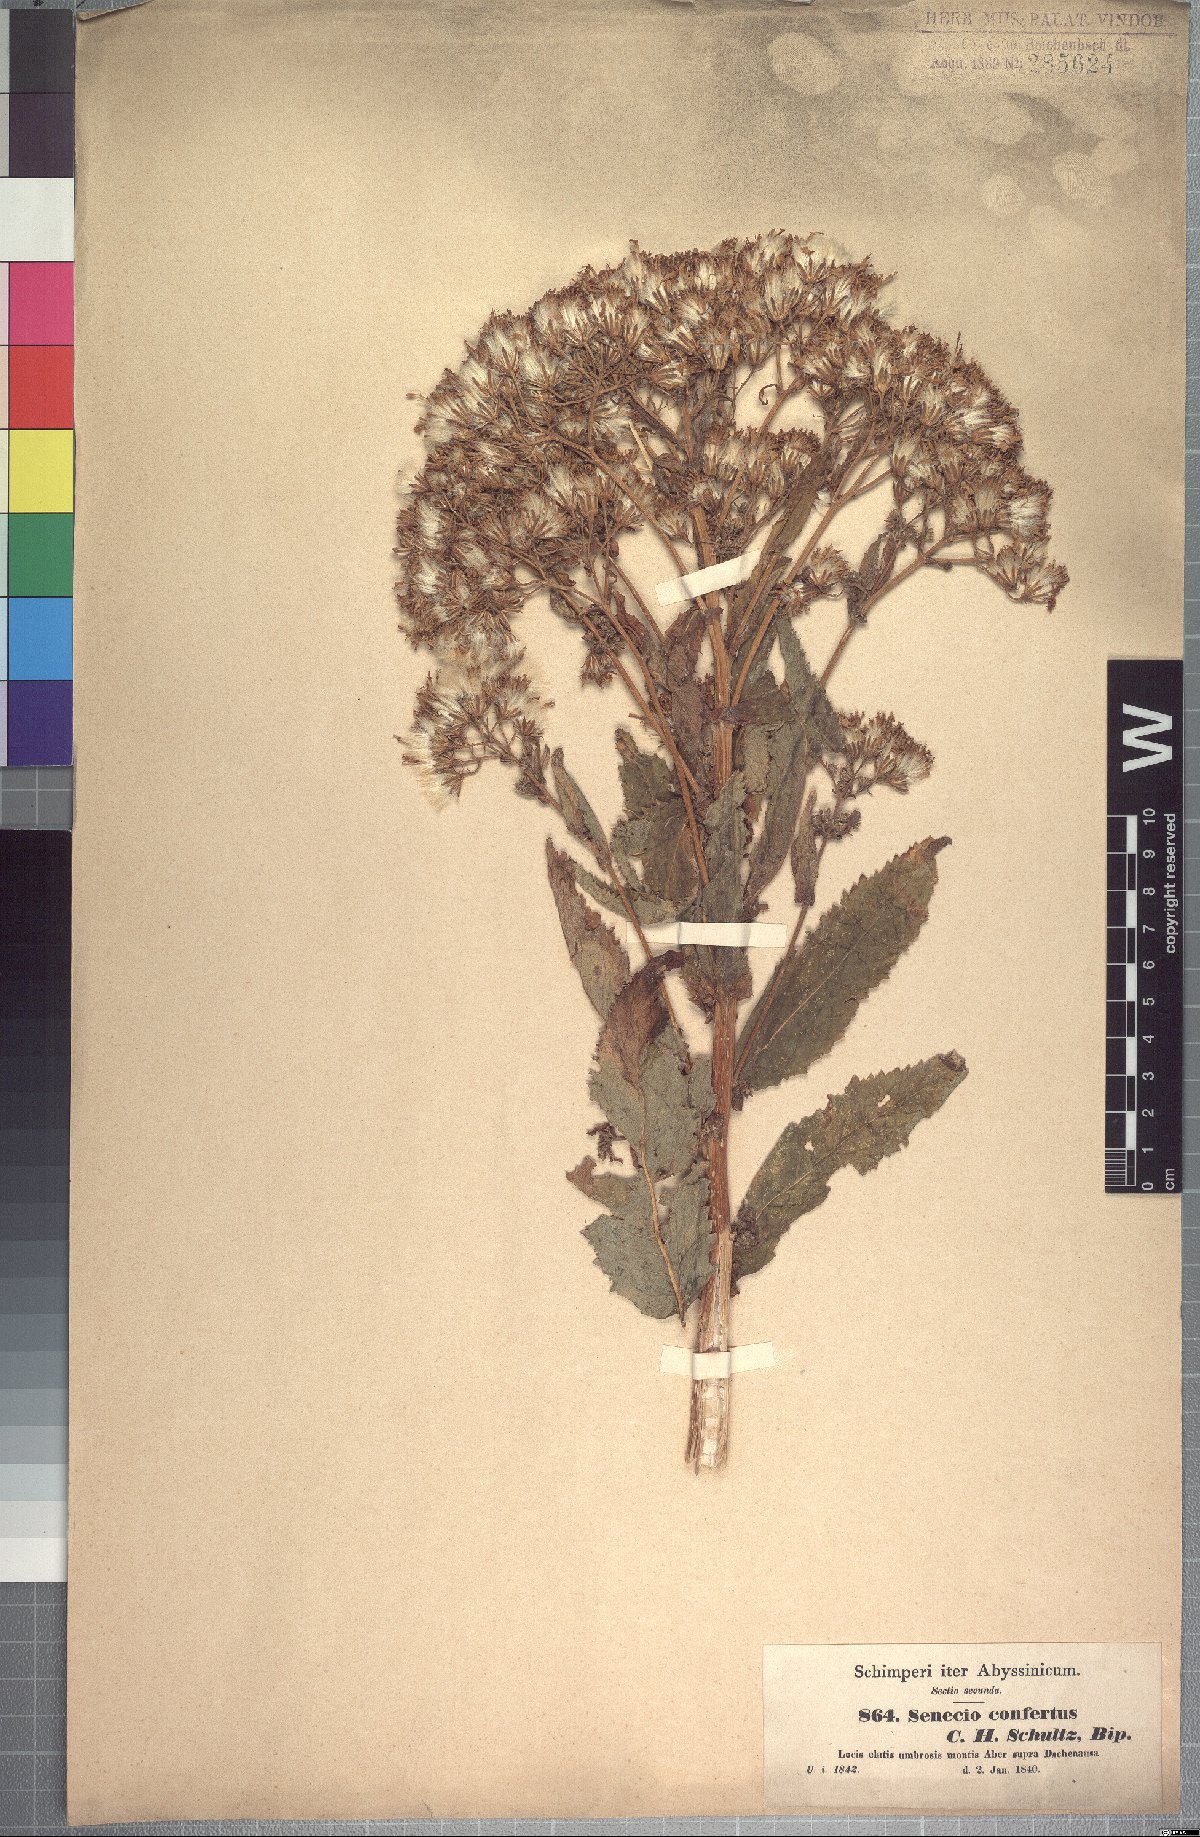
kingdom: Plantae
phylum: Tracheophyta
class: Magnoliopsida
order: Asterales
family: Asteraceae
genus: Senecio
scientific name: Senecio confertus
